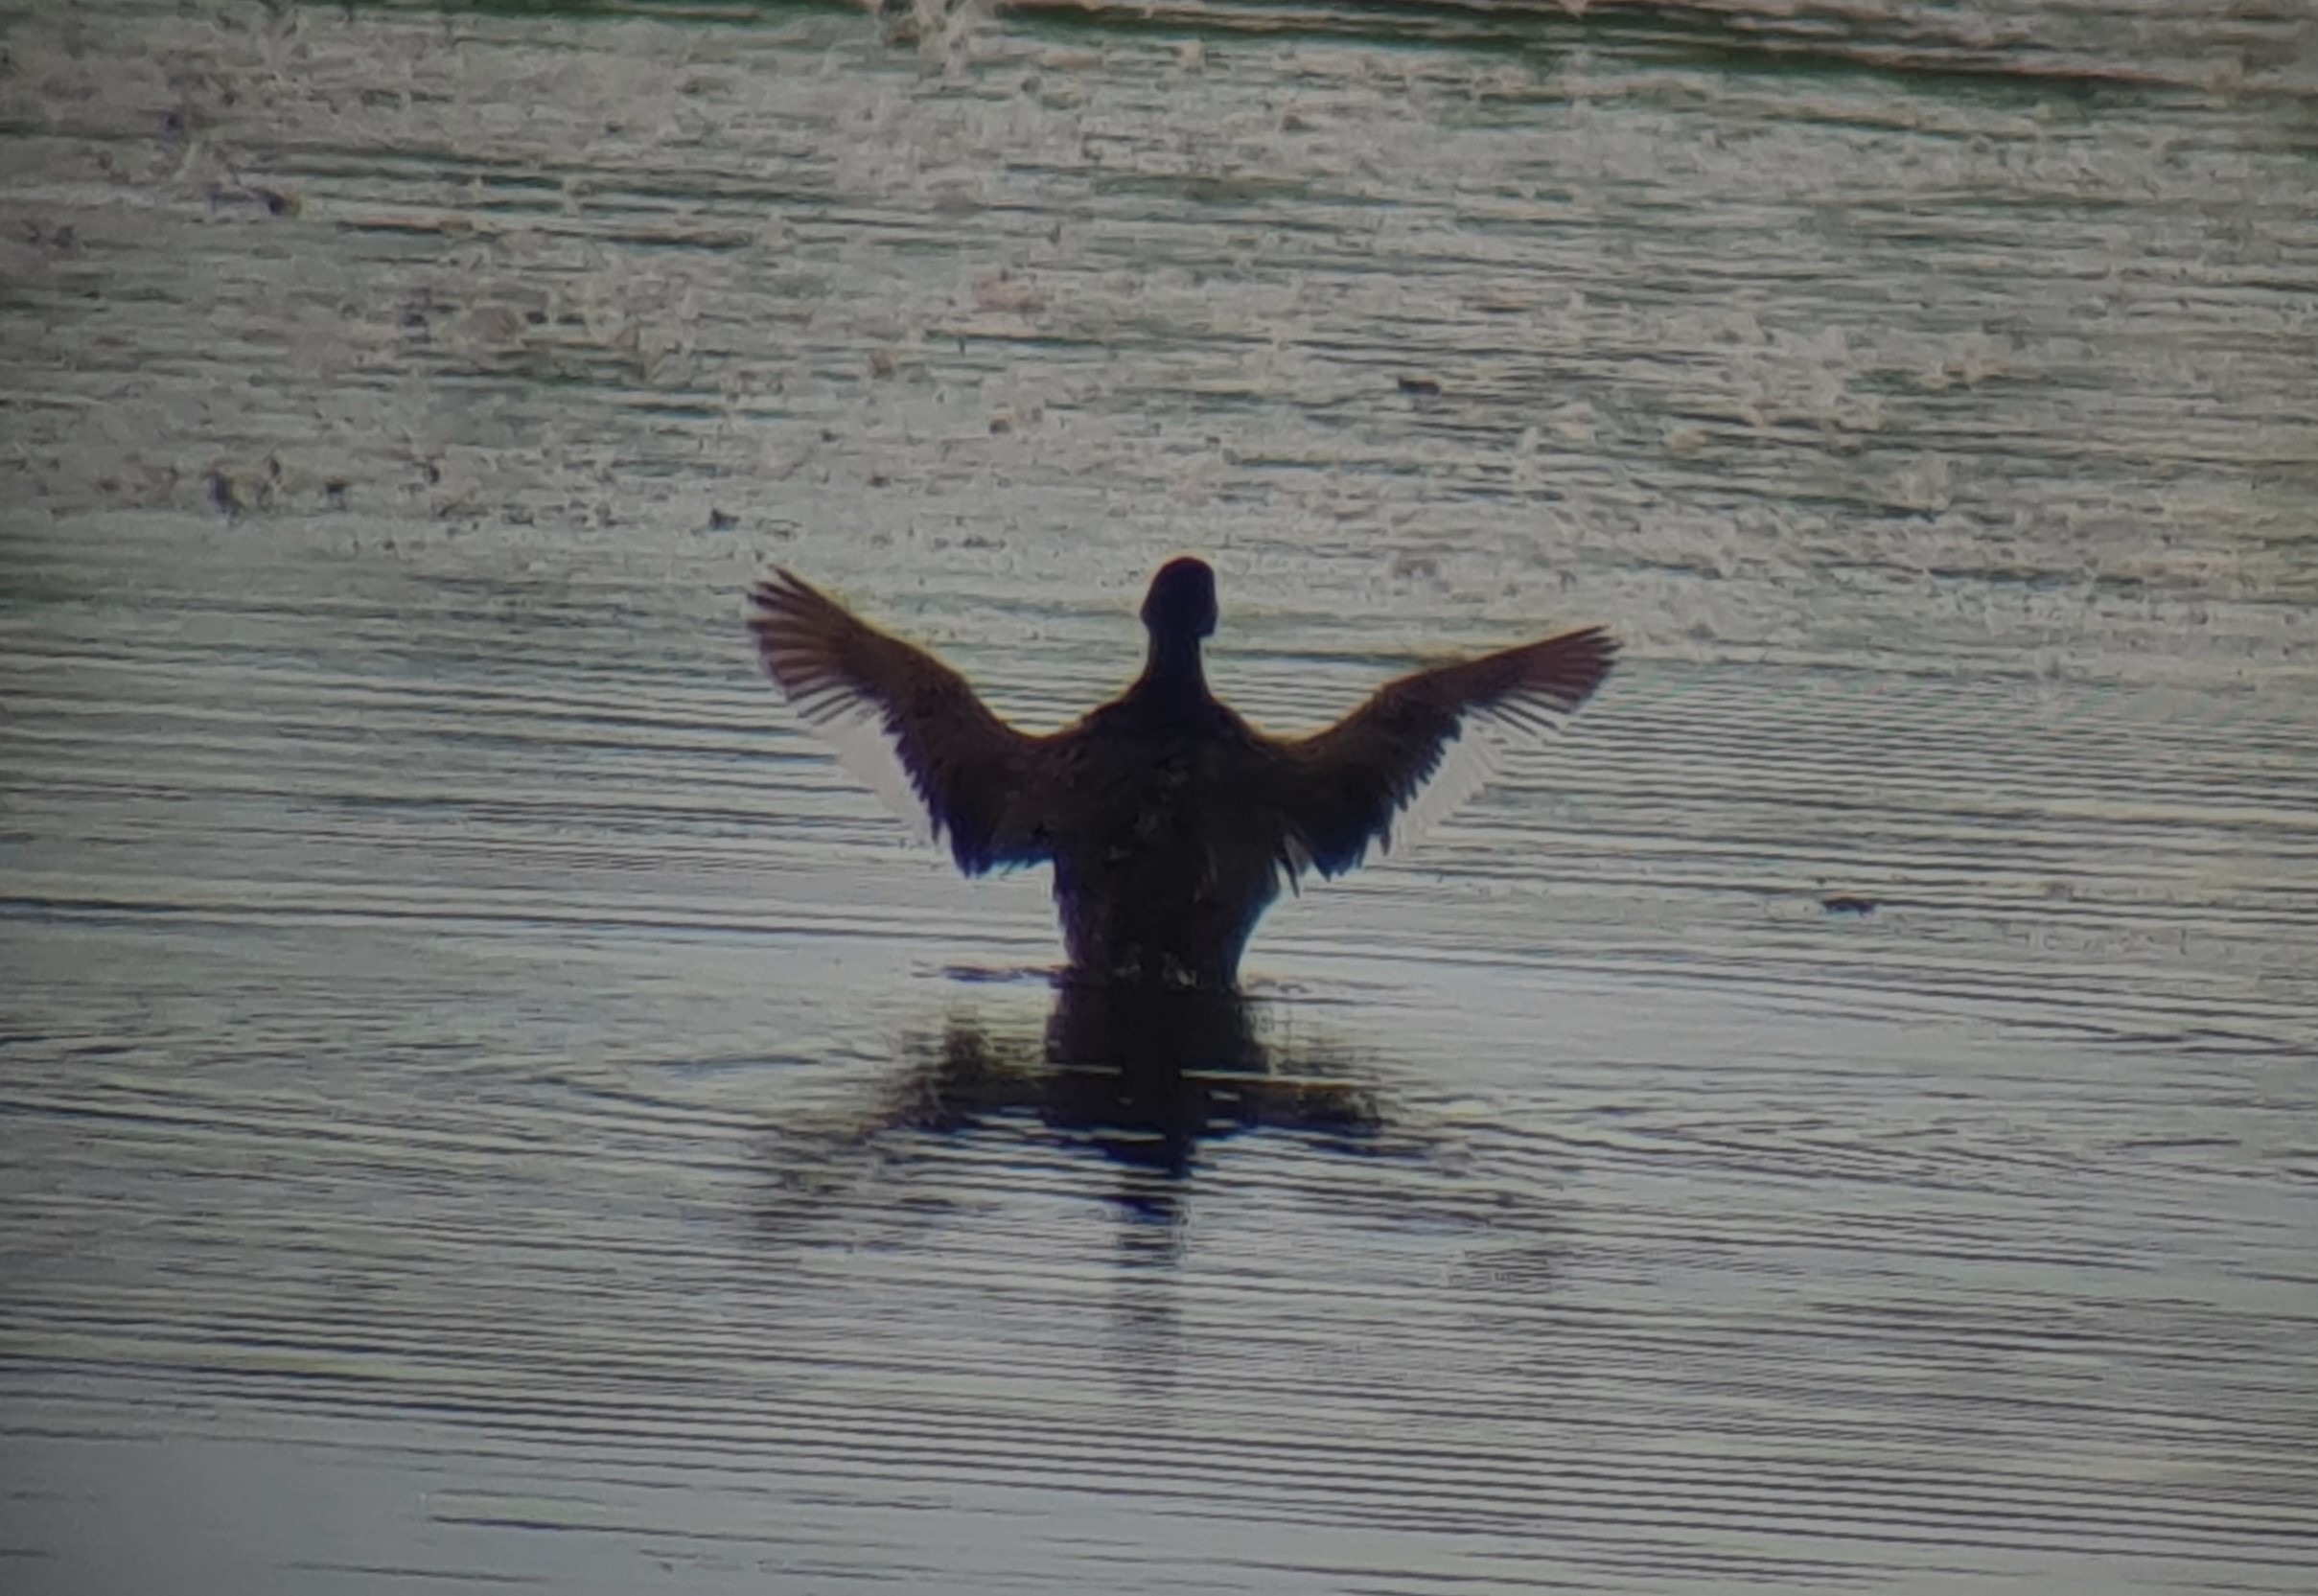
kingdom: Animalia
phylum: Chordata
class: Aves
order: Podicipediformes
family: Podicipedidae
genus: Podiceps
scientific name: Podiceps nigricollis
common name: Sorthalset lappedykker
